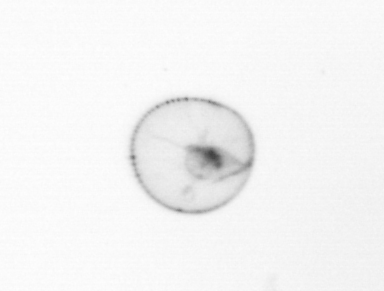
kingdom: Chromista
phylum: Myzozoa
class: Dinophyceae
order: Noctilucales
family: Noctilucaceae
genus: Noctiluca
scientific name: Noctiluca scintillans
